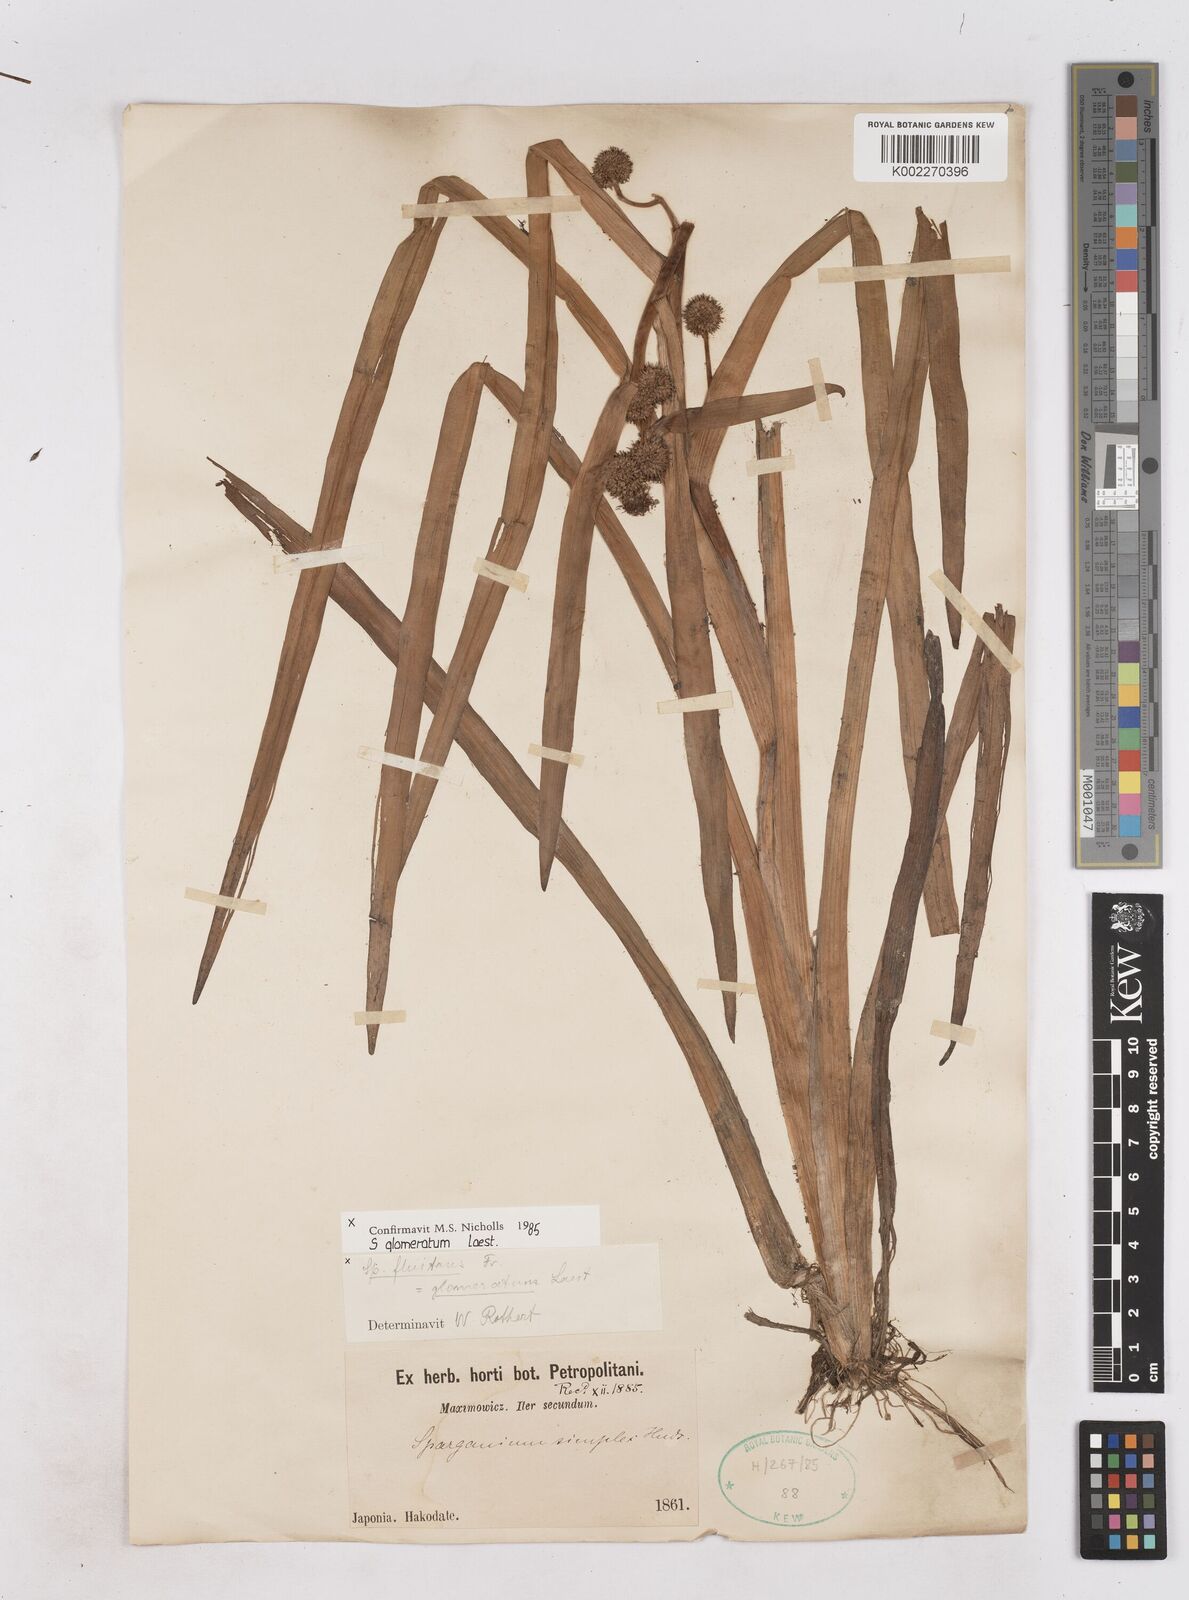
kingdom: Plantae
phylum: Tracheophyta
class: Liliopsida
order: Poales
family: Typhaceae
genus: Sparganium
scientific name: Sparganium glomeratum
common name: Clustered burreed
